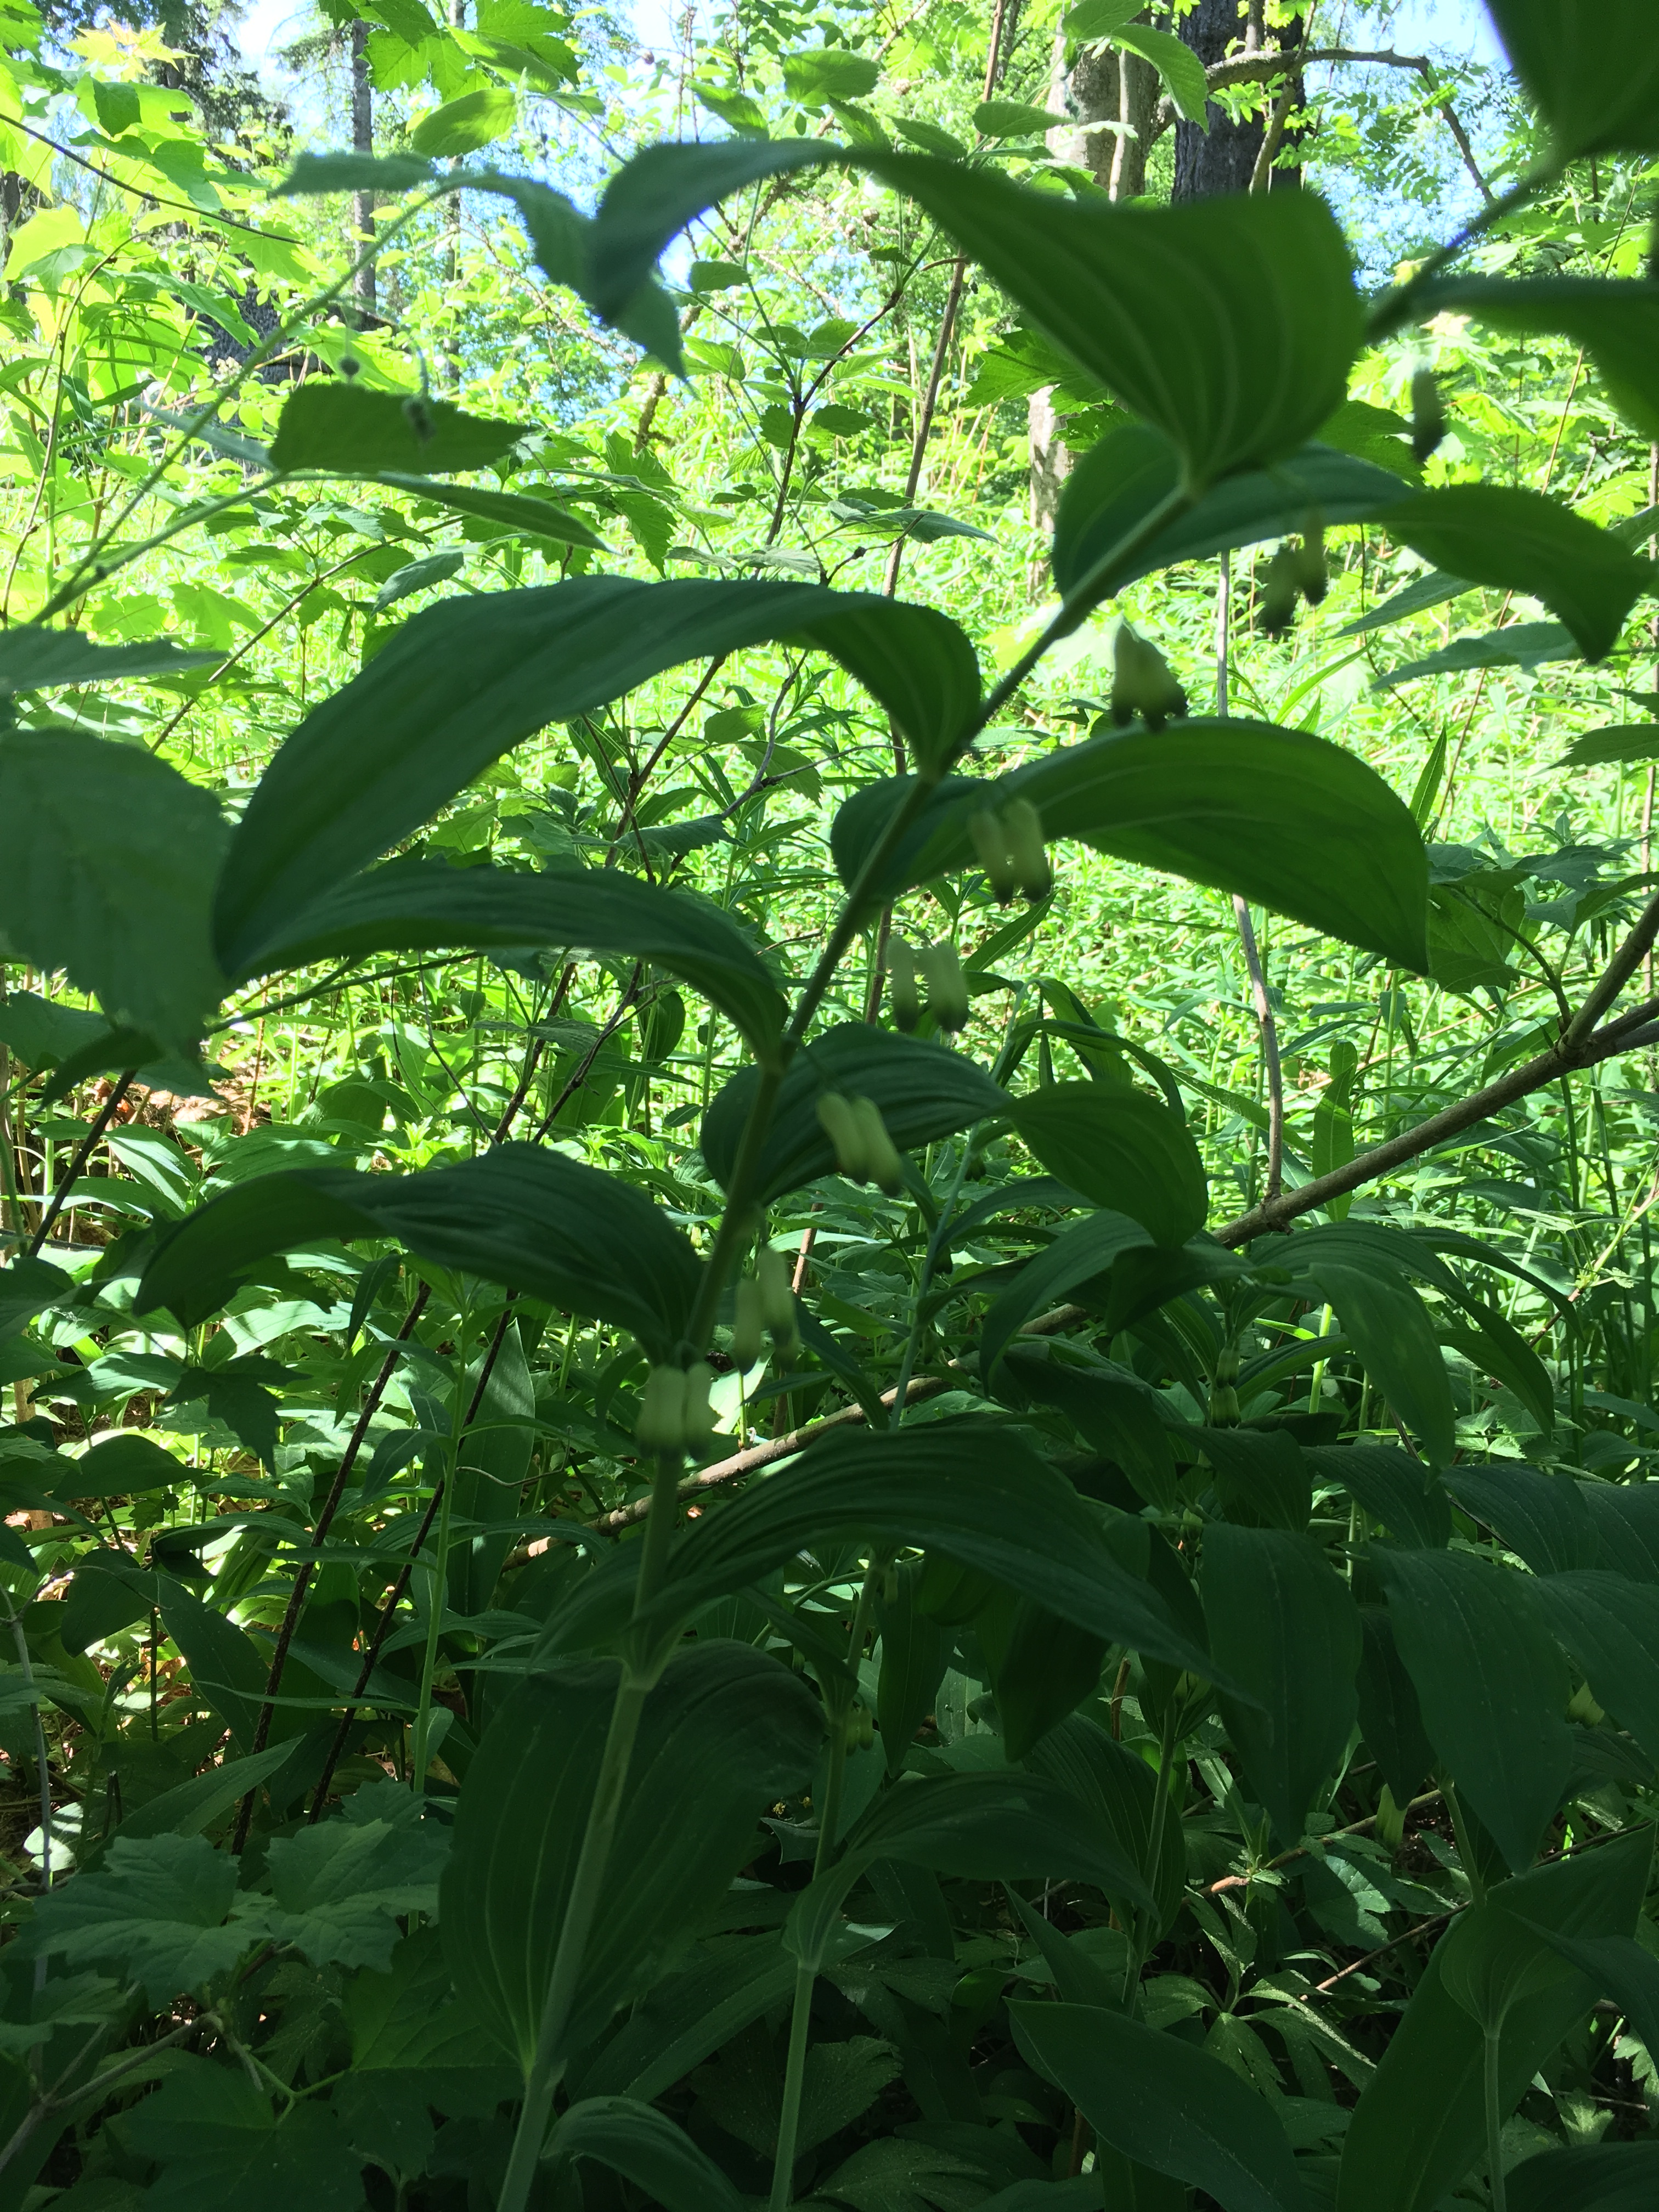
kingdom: Plantae
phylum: Tracheophyta
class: Liliopsida
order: Asparagales
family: Asparagaceae
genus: Polygonatum
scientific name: Polygonatum multiflorum
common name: Solomon's-seal
